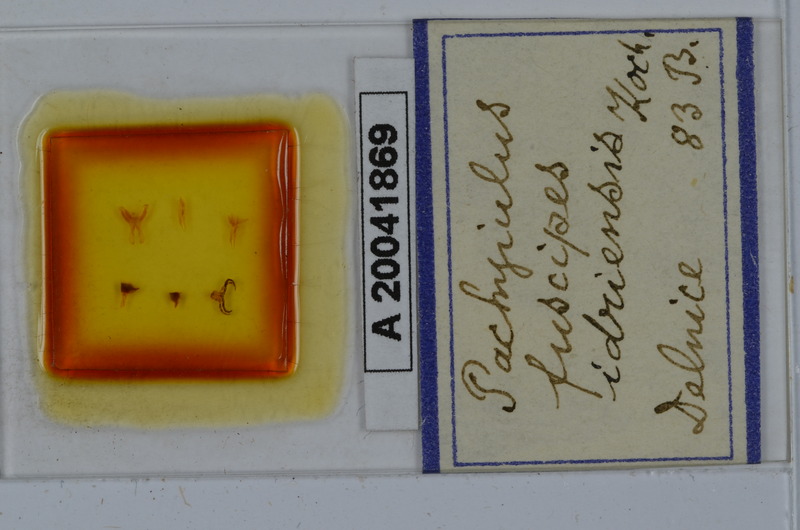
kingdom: Animalia
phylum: Arthropoda
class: Diplopoda
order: Julida
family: Julidae
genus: Acanthoiulus
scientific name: Acanthoiulus fuscipes
